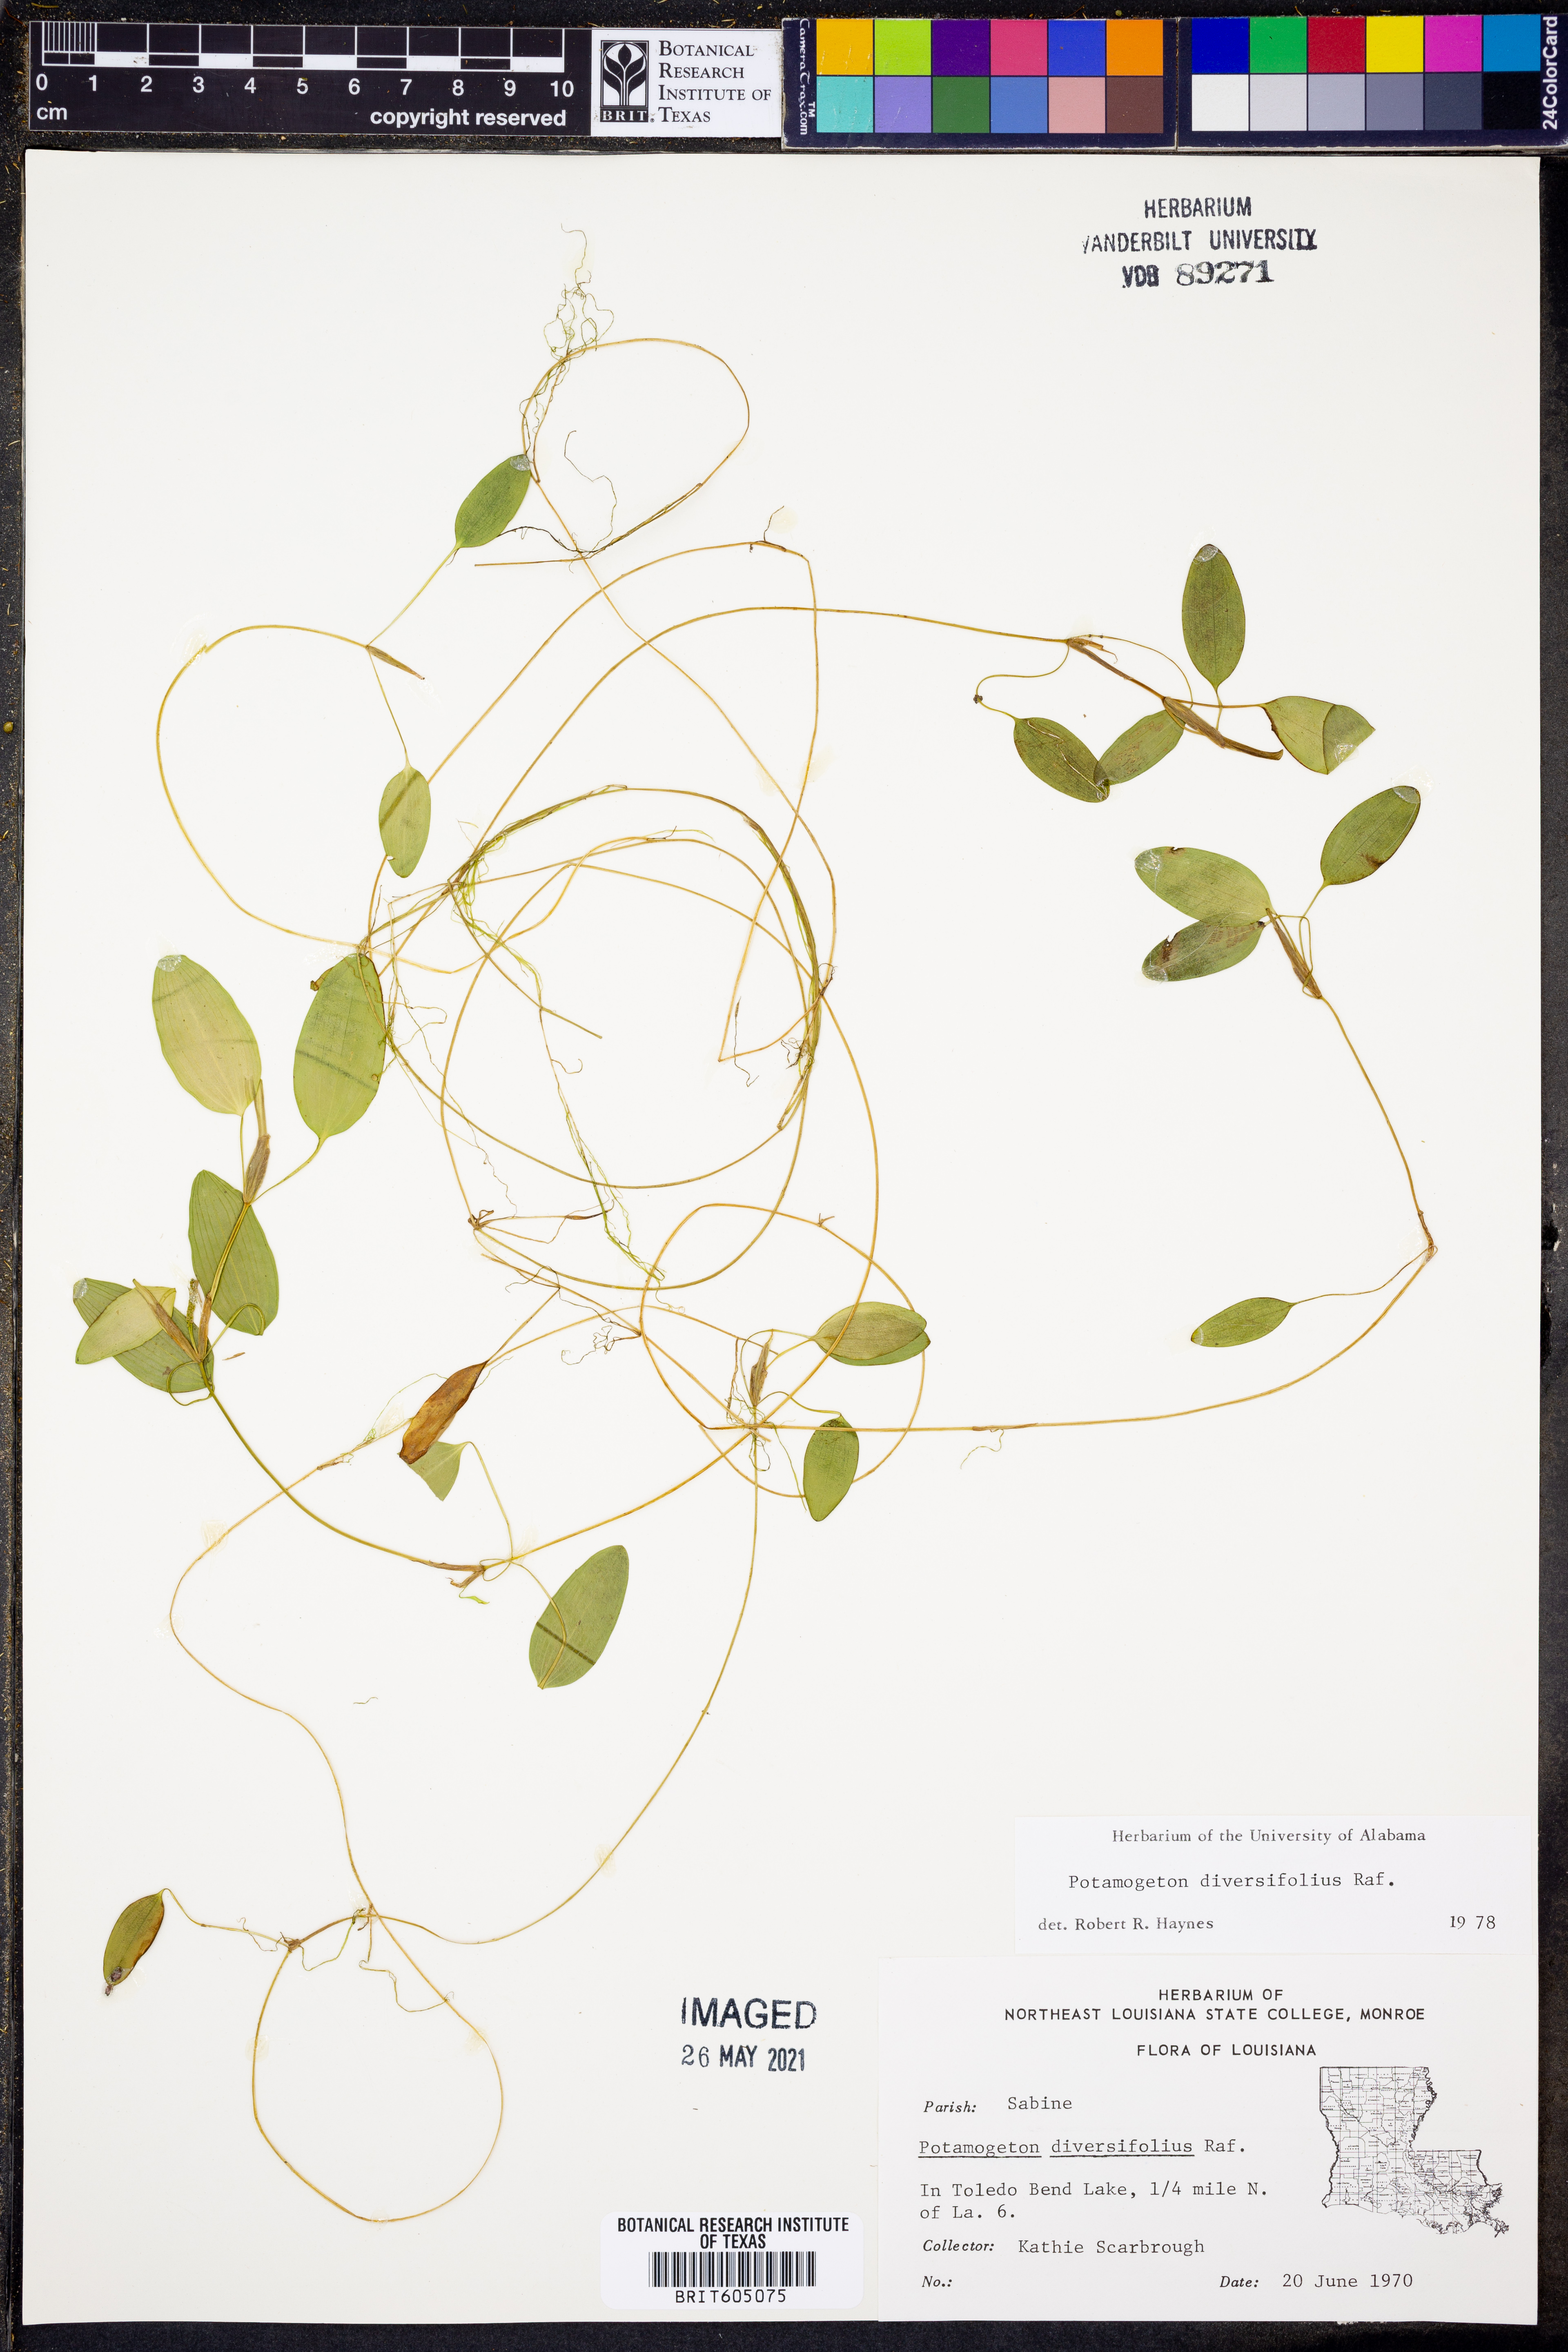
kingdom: Plantae
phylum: Tracheophyta
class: Liliopsida
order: Alismatales
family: Potamogetonaceae
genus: Potamogeton
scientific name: Potamogeton diversifolius
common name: Water-thread pondweed
